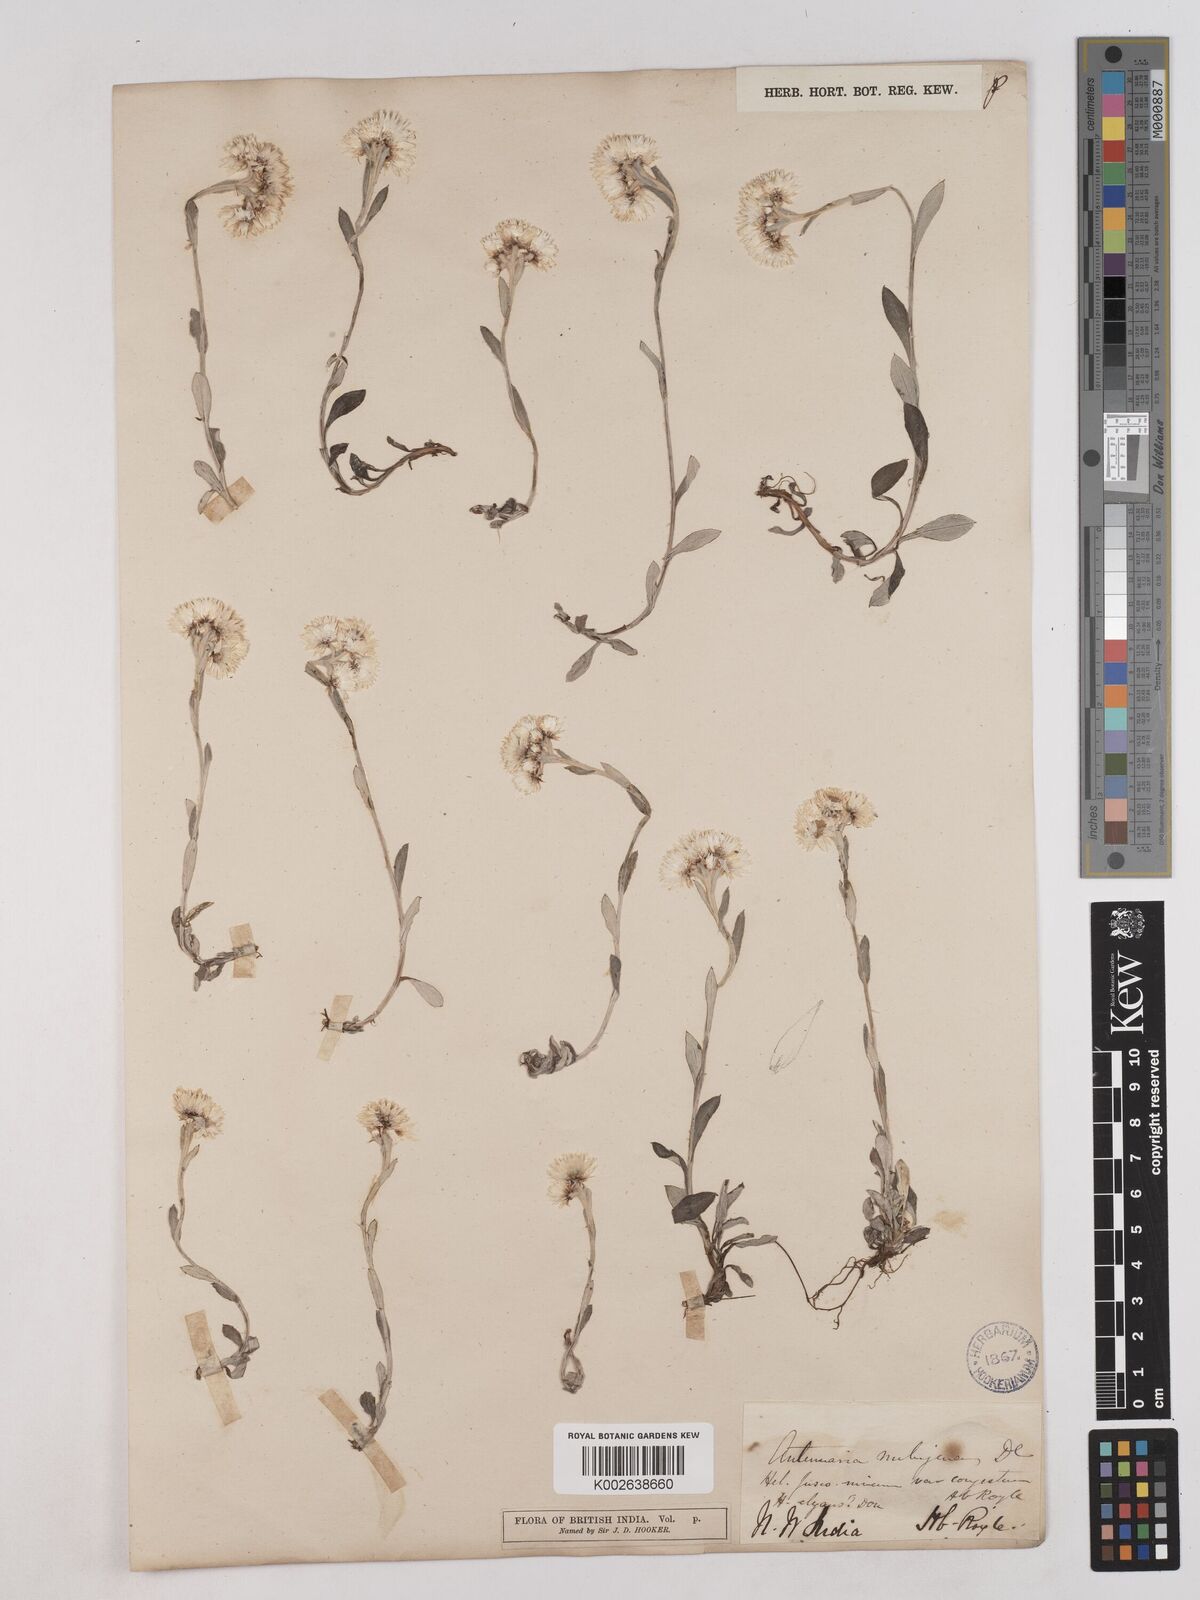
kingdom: Plantae
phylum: Tracheophyta
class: Magnoliopsida
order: Asterales
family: Asteraceae
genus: Anaphalioides
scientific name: Anaphalioides trinervis
